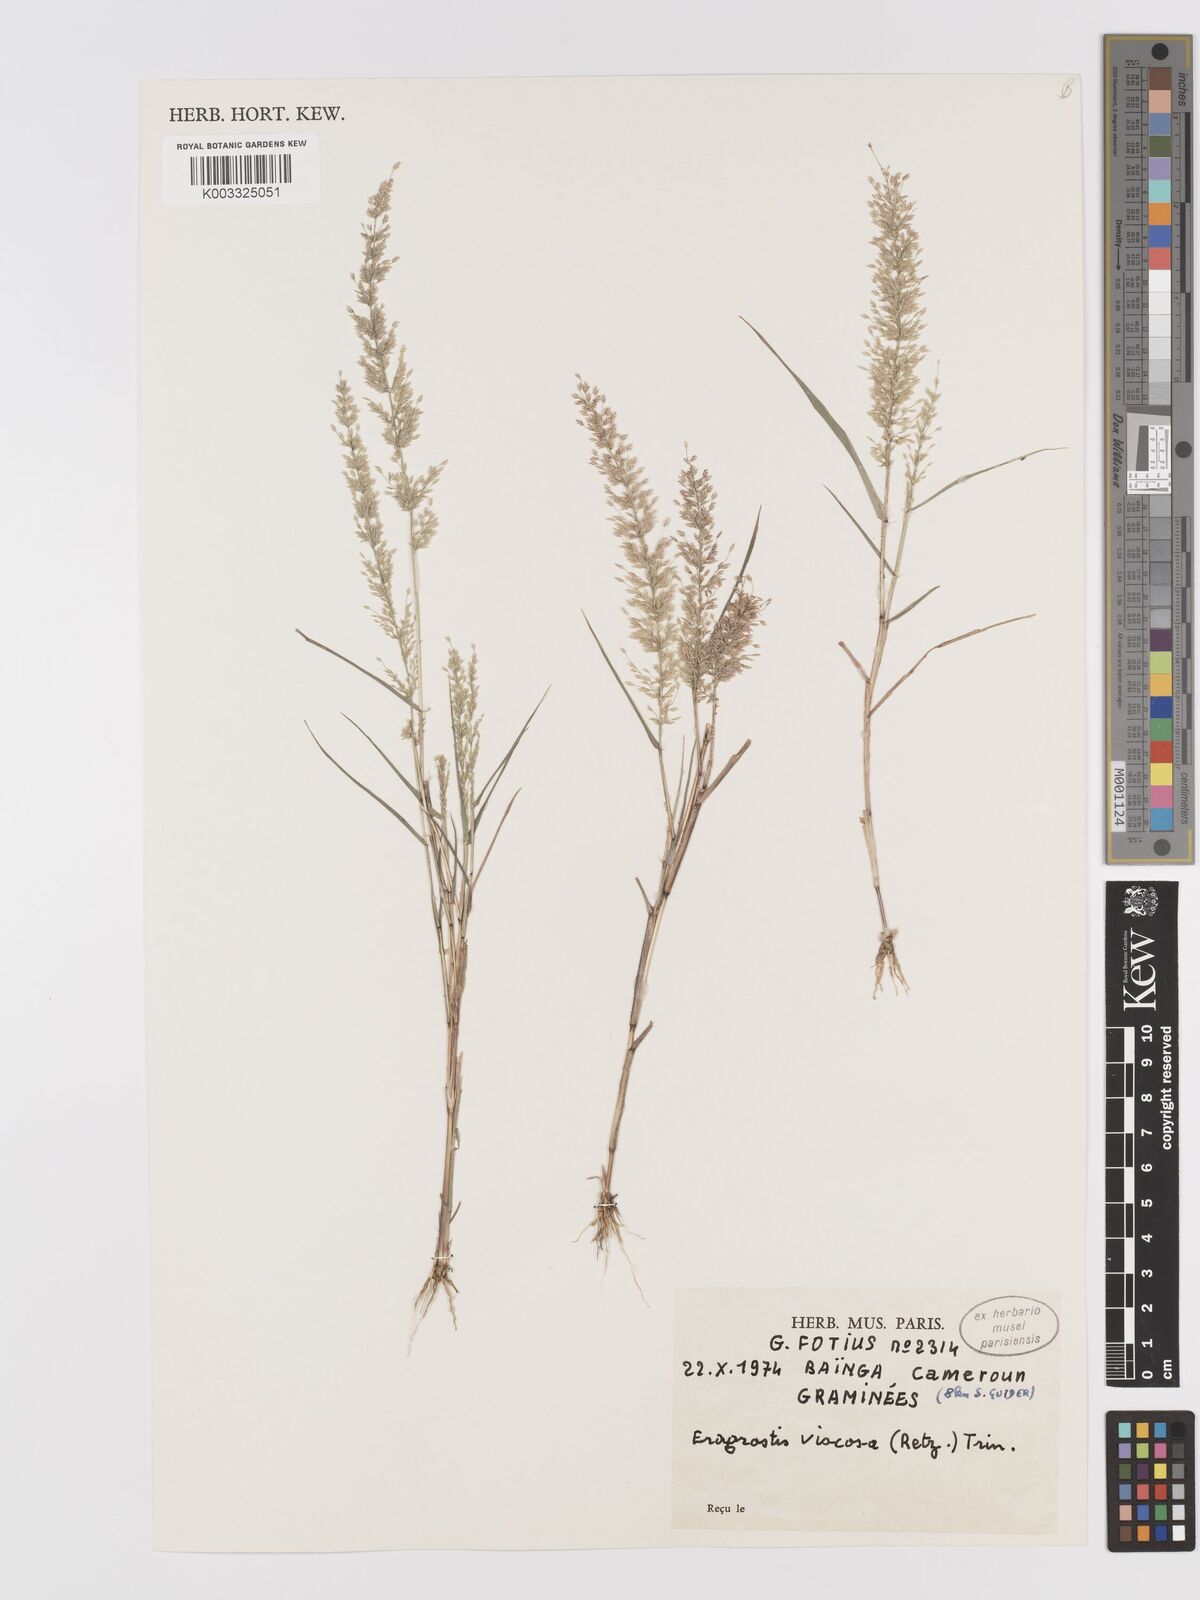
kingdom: Plantae
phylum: Tracheophyta
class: Liliopsida
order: Poales
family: Poaceae
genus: Eragrostis
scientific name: Eragrostis curtipedicellata
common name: Gummy love grass
